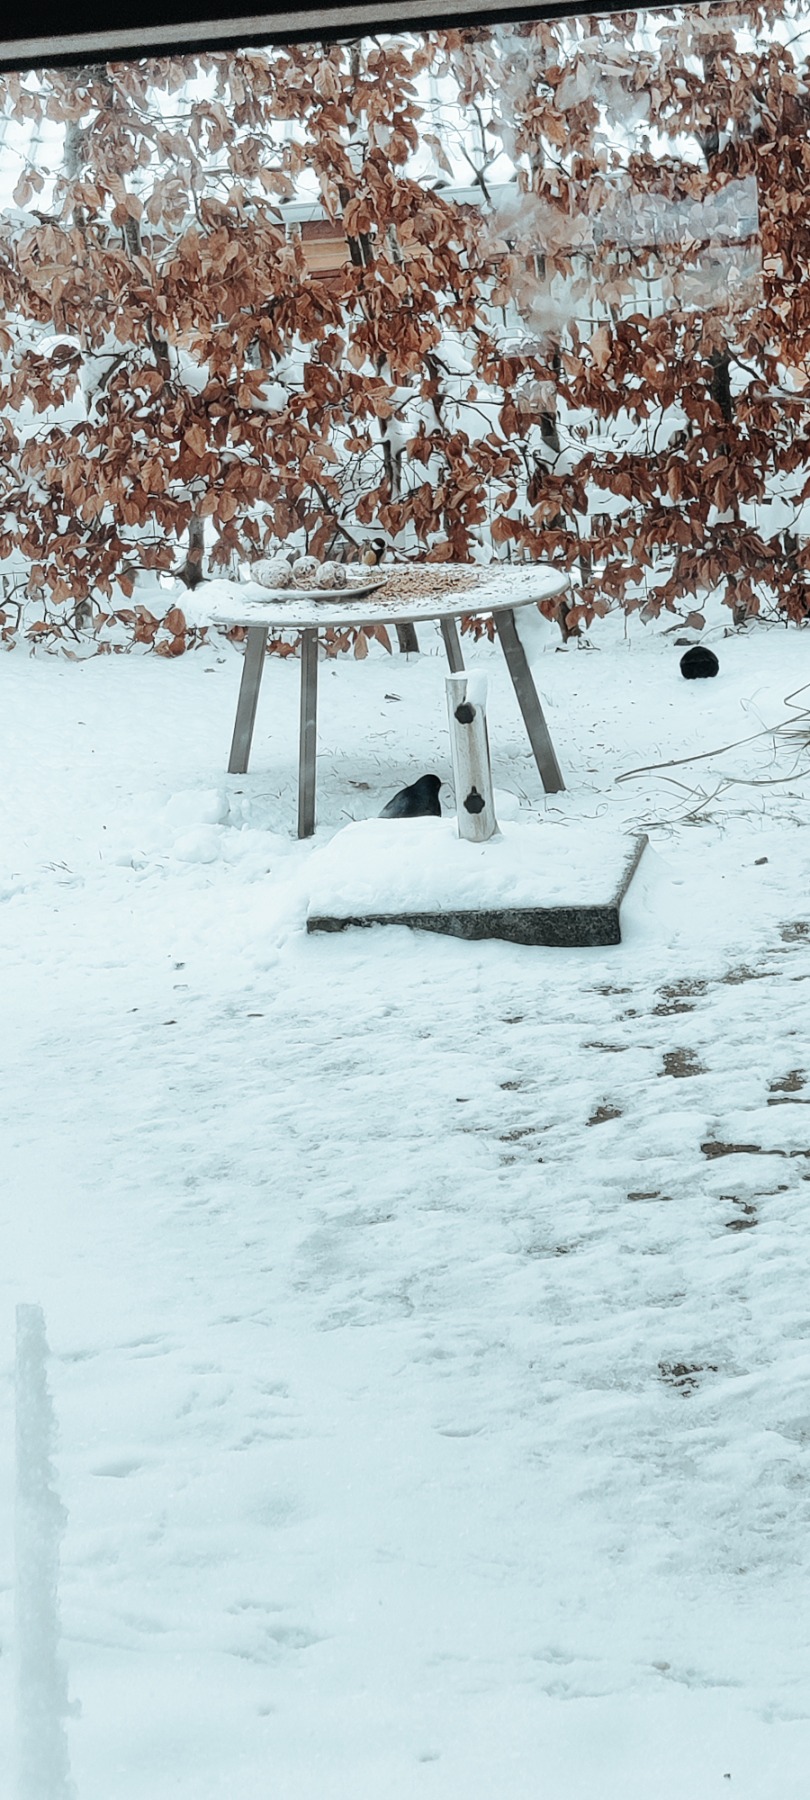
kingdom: Animalia
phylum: Chordata
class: Aves
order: Passeriformes
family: Paridae
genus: Parus
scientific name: Parus major
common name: Musvit
